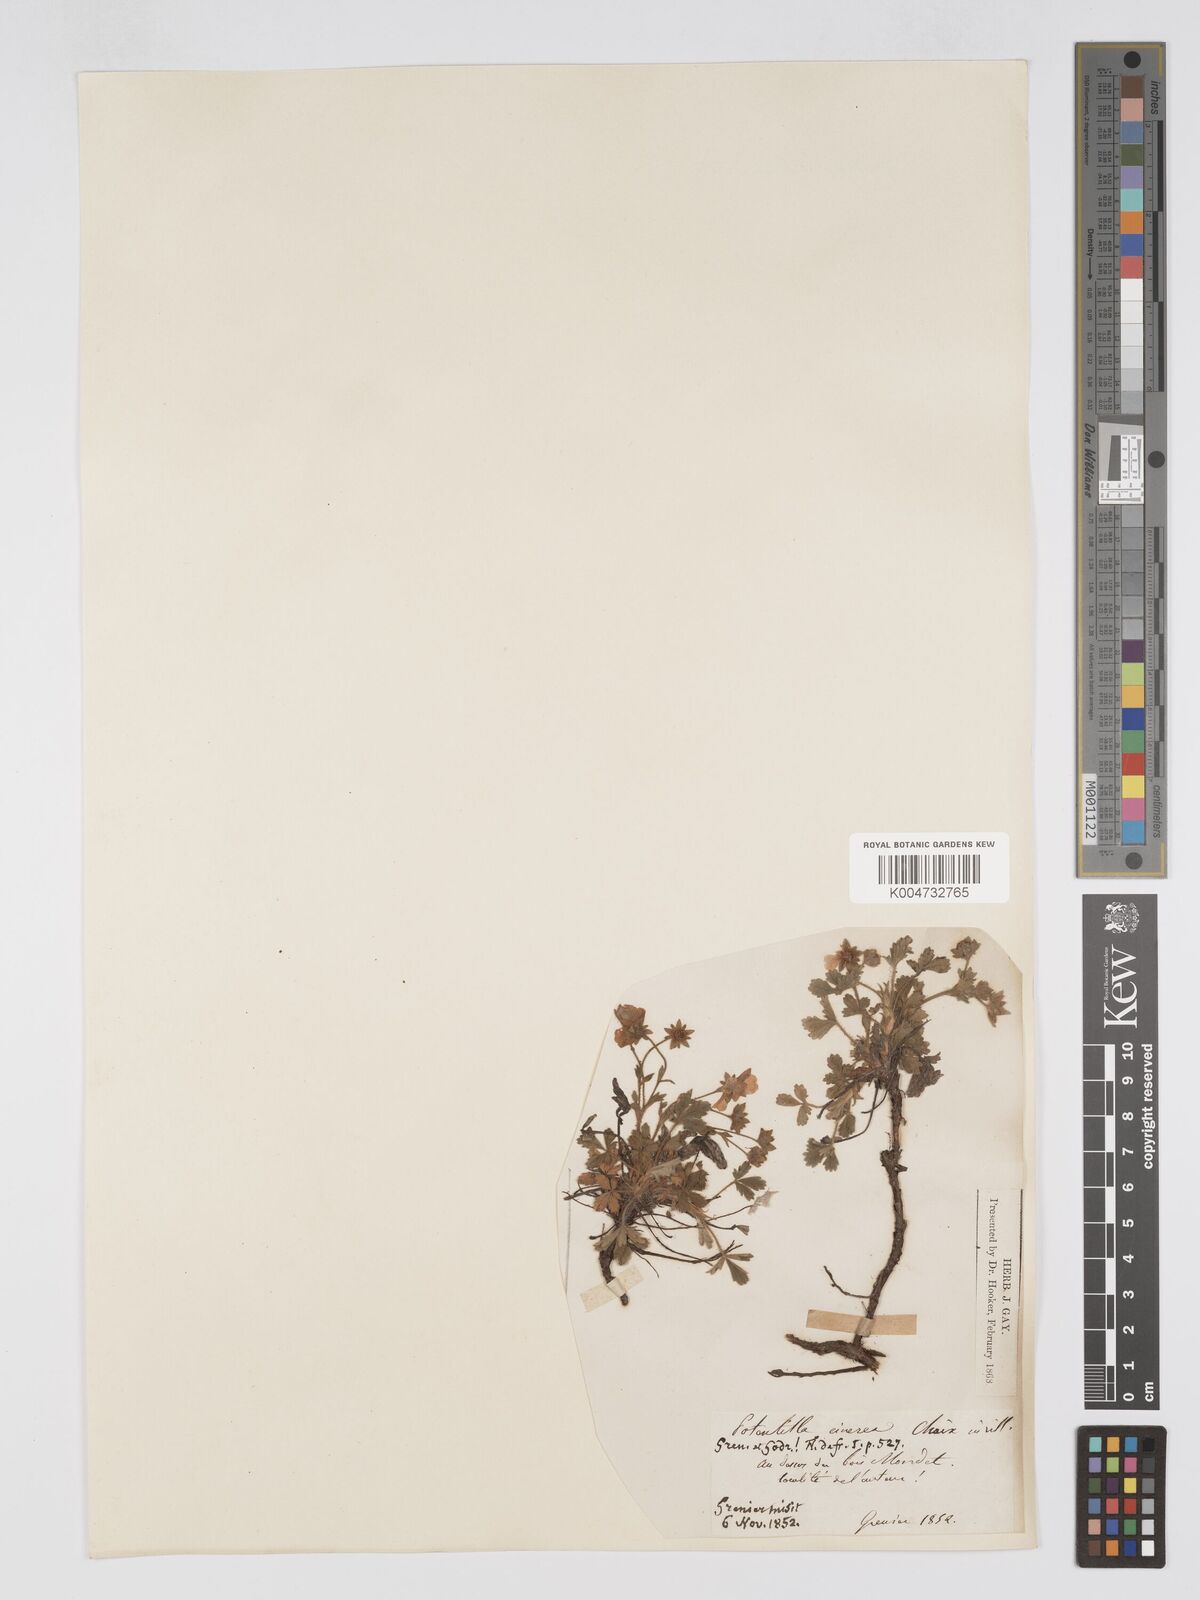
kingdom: Plantae
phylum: Tracheophyta
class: Magnoliopsida
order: Rosales
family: Rosaceae
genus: Potentilla
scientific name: Potentilla
